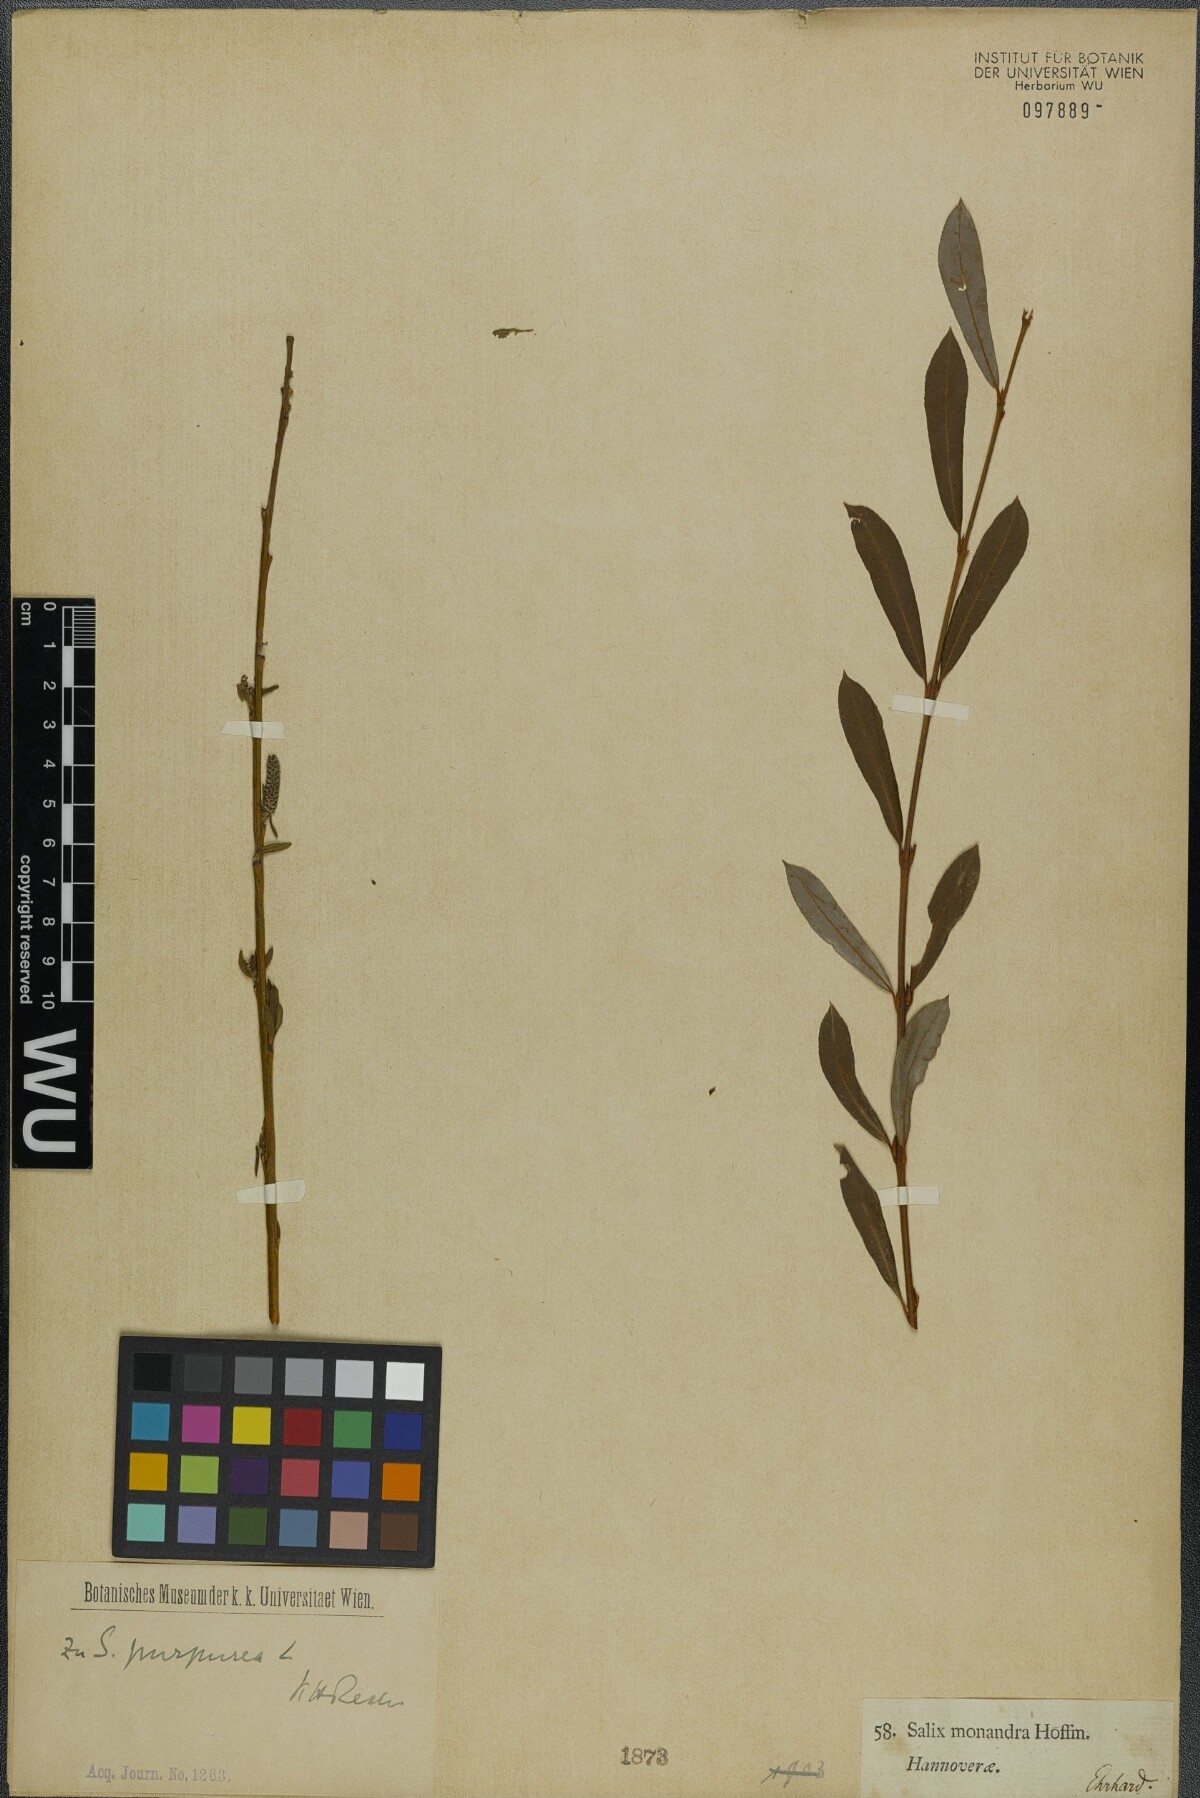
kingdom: Plantae
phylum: Tracheophyta
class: Magnoliopsida
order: Malpighiales
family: Salicaceae
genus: Salix
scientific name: Salix purpurea
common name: Purple willow
